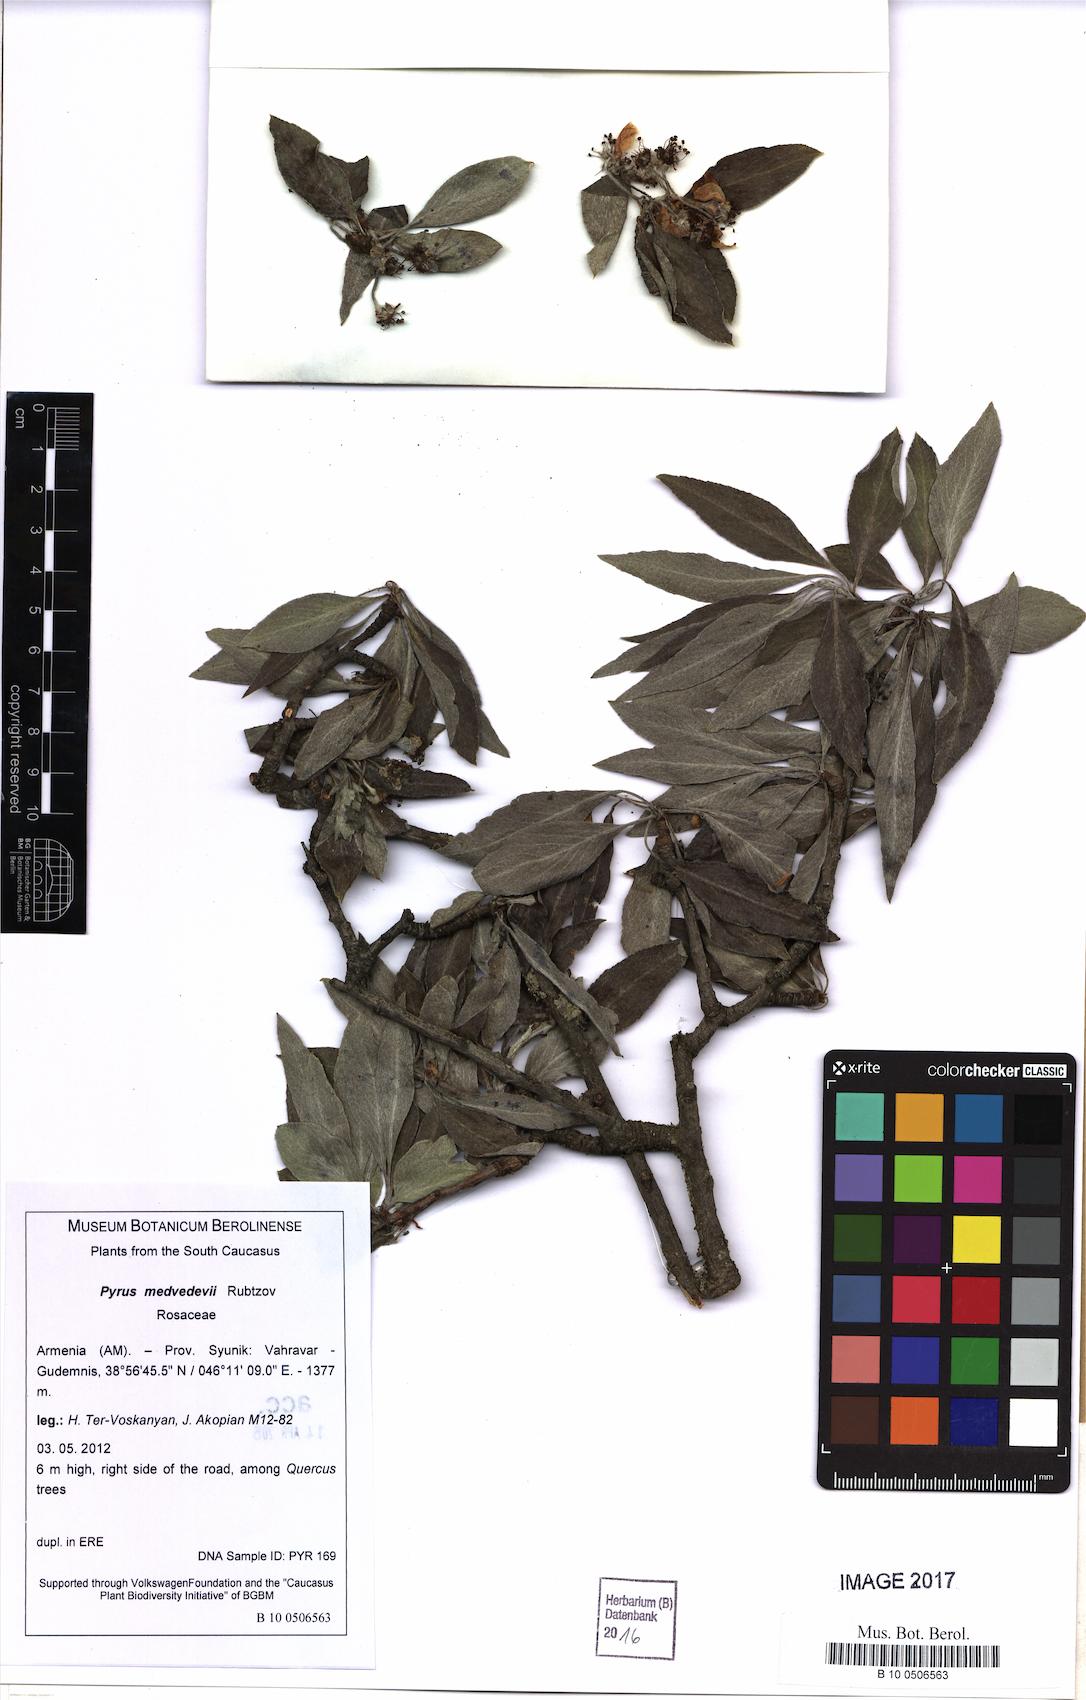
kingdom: Plantae
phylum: Tracheophyta
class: Magnoliopsida
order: Rosales
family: Rosaceae
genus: Pyrus
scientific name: Pyrus medvedevii
